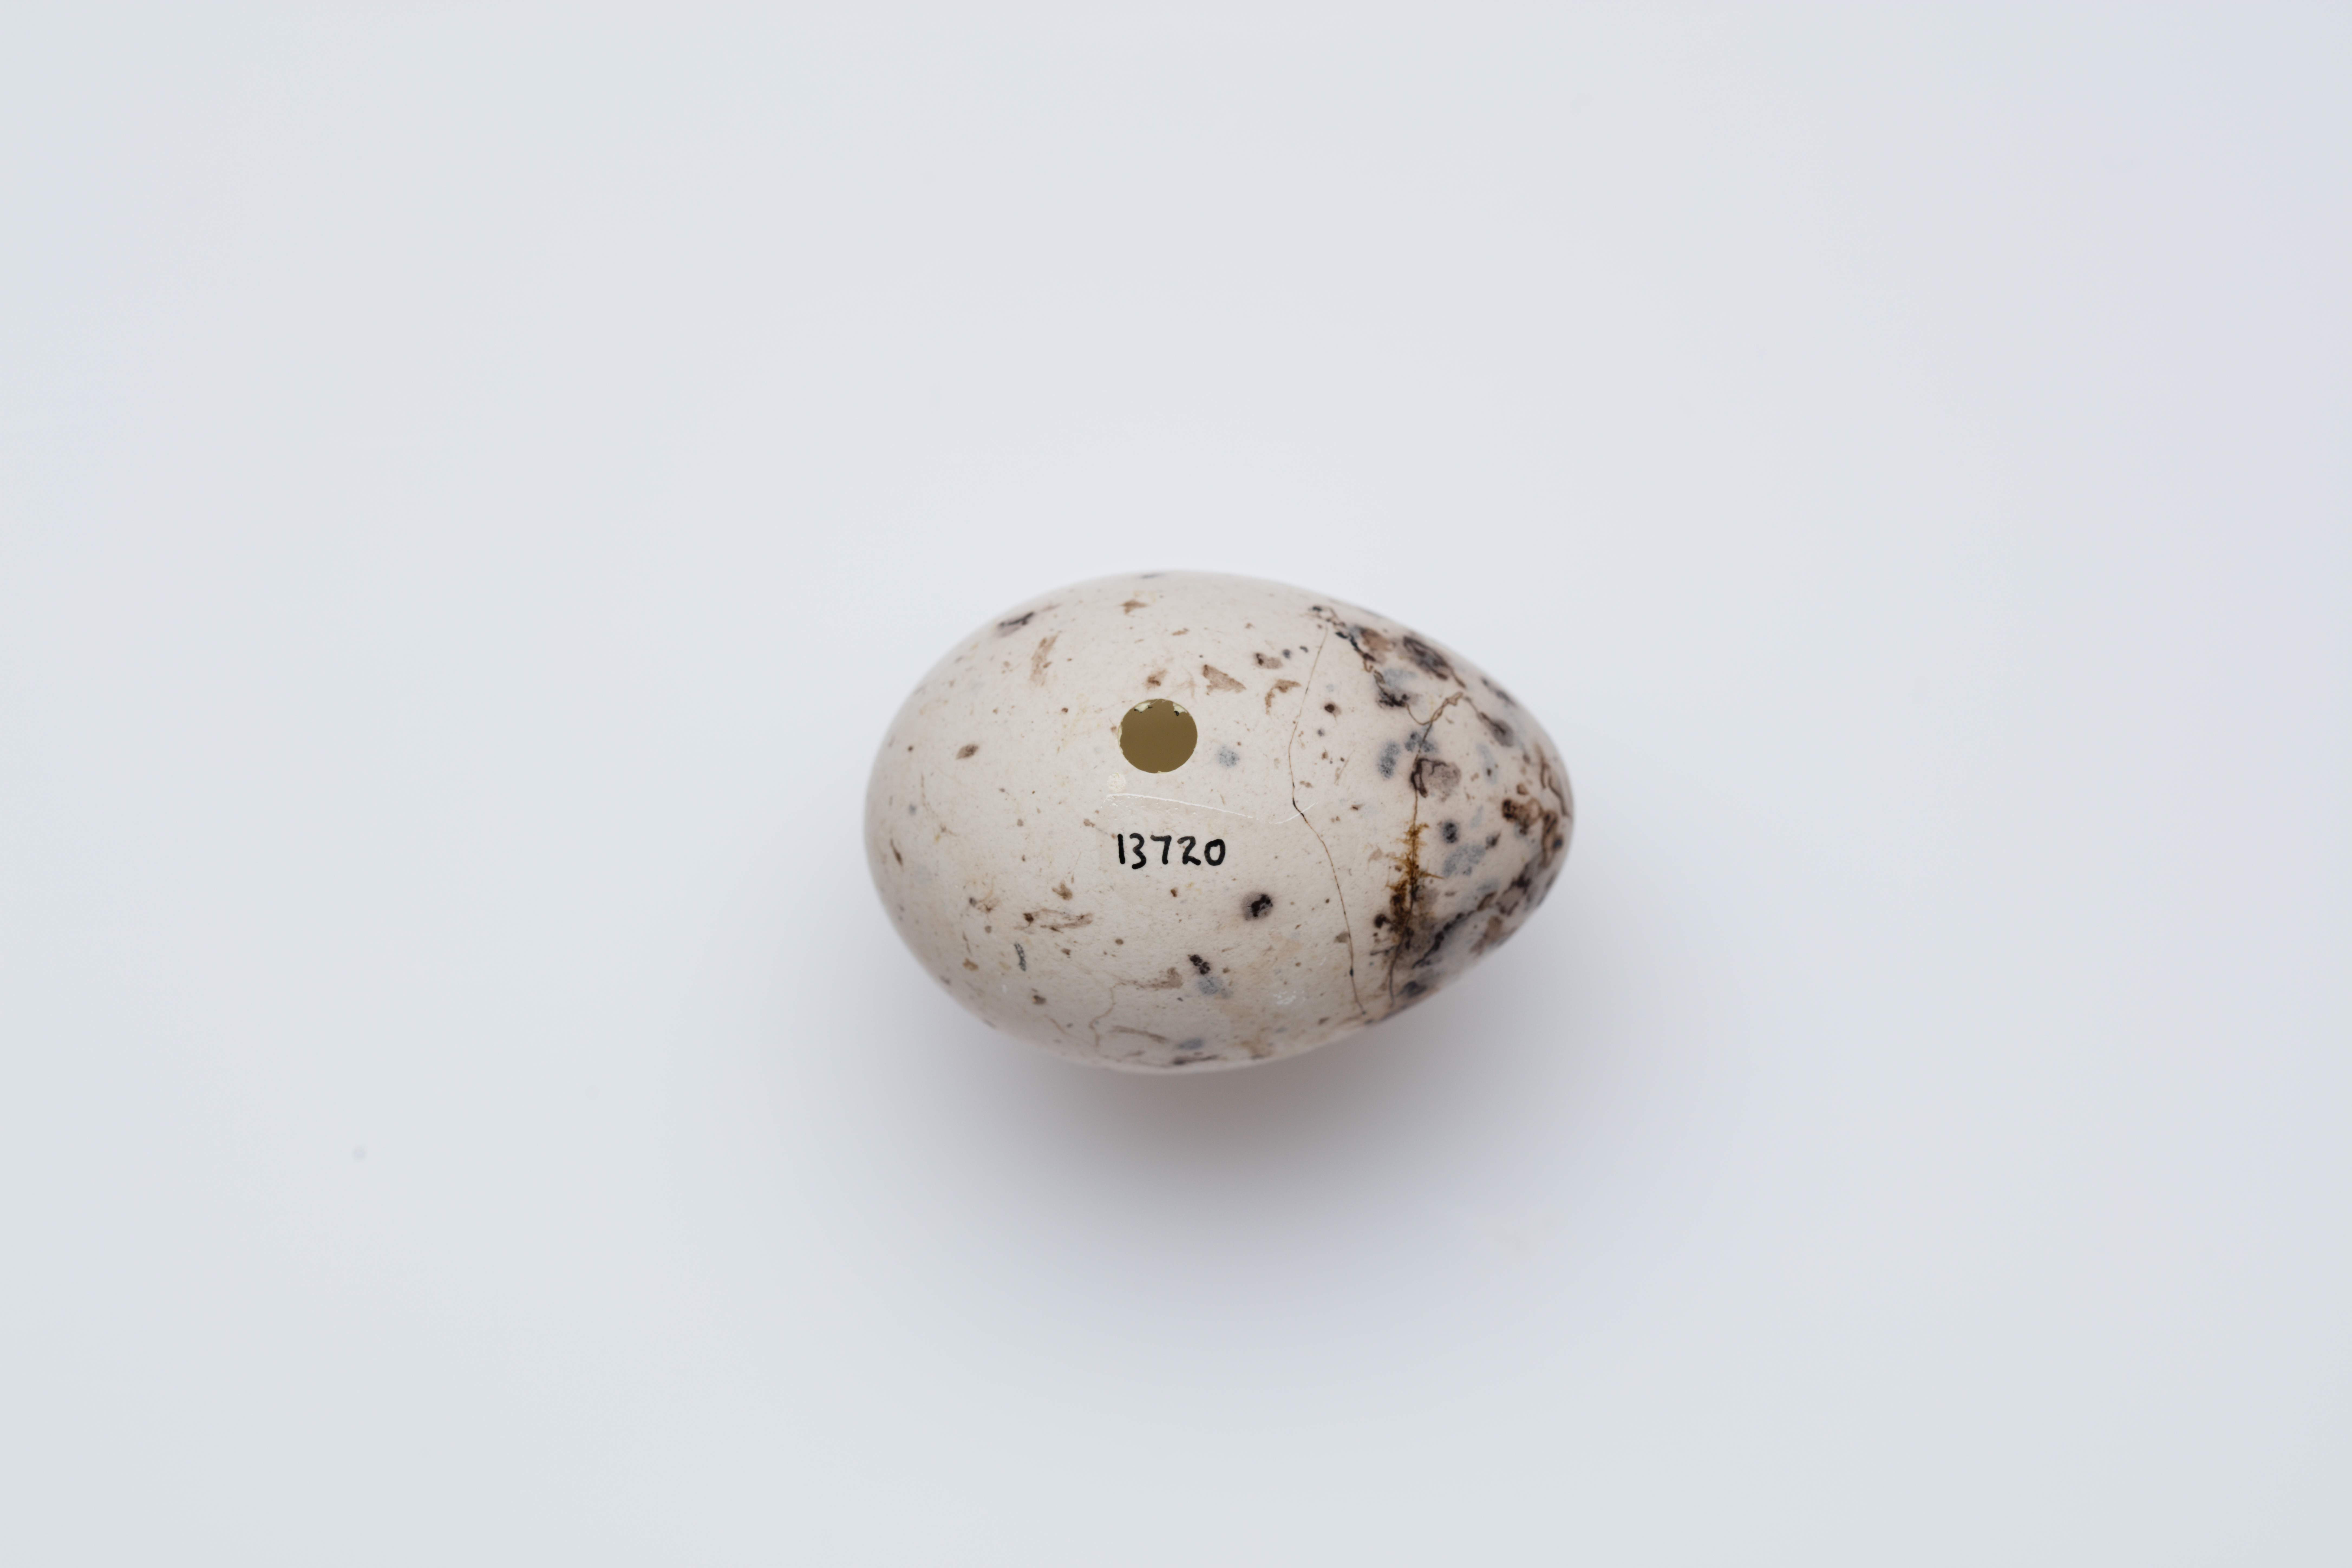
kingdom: Animalia
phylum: Chordata
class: Aves
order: Passeriformes
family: Callaeatidae
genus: Callaeas
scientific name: Callaeas cinereus
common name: South island kokako
